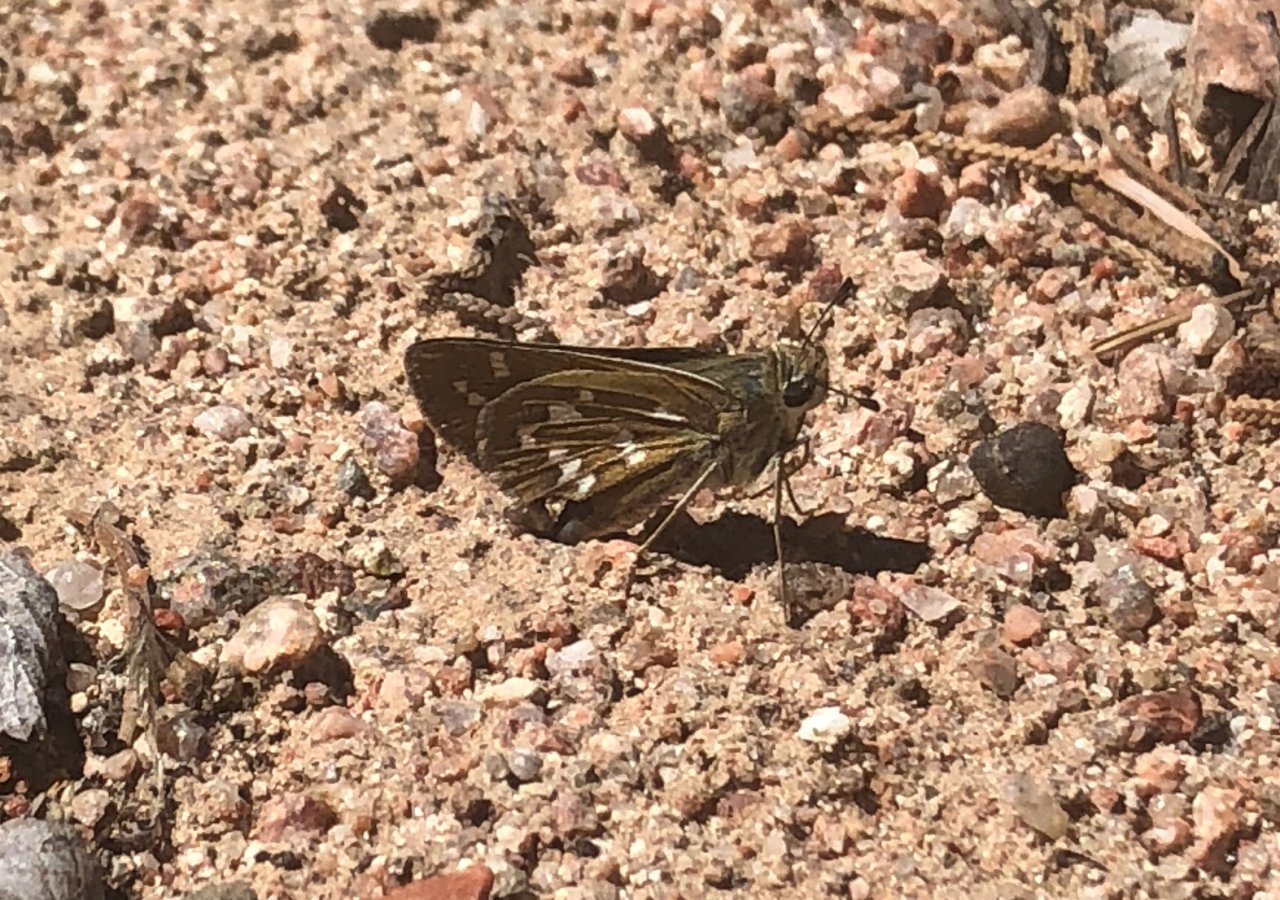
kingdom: Animalia
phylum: Arthropoda
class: Insecta
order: Lepidoptera
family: Hesperiidae
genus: Hesperia
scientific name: Hesperia pahaska
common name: Pahaska Skipper
